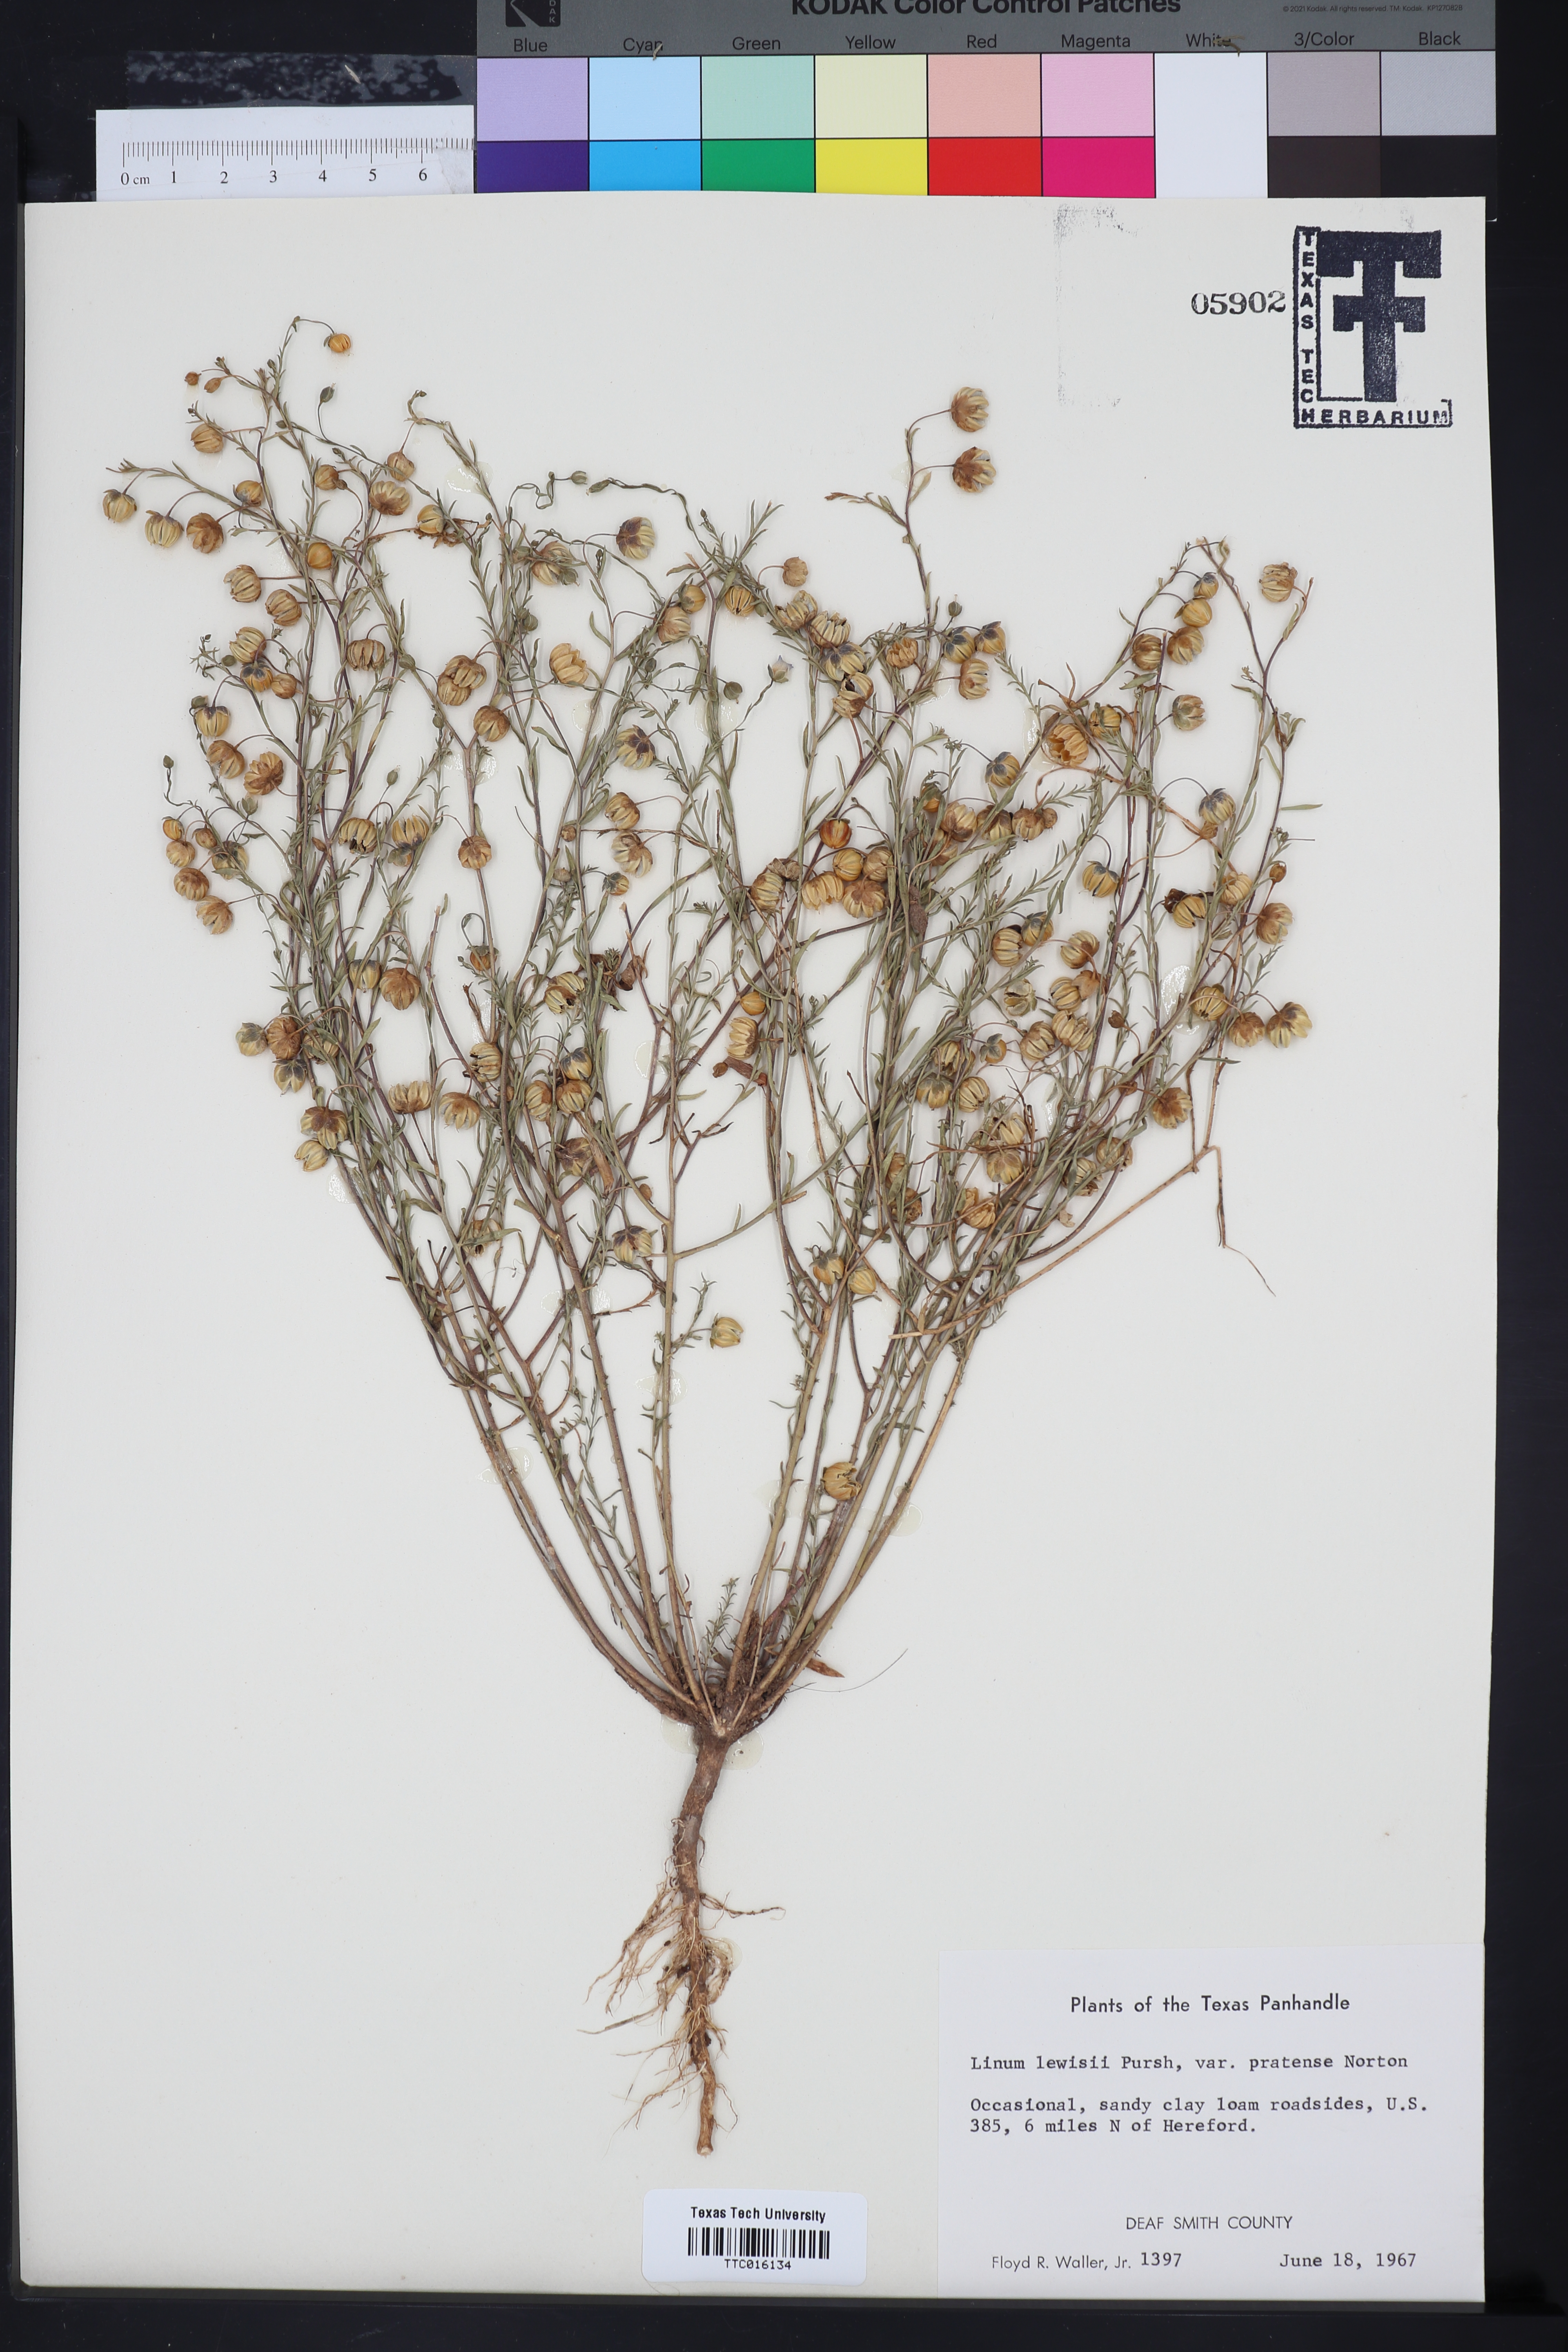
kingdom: Plantae
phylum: Tracheophyta
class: Magnoliopsida
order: Malpighiales
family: Linaceae
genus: Linum
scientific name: Linum lewisii
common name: Prairie flax
